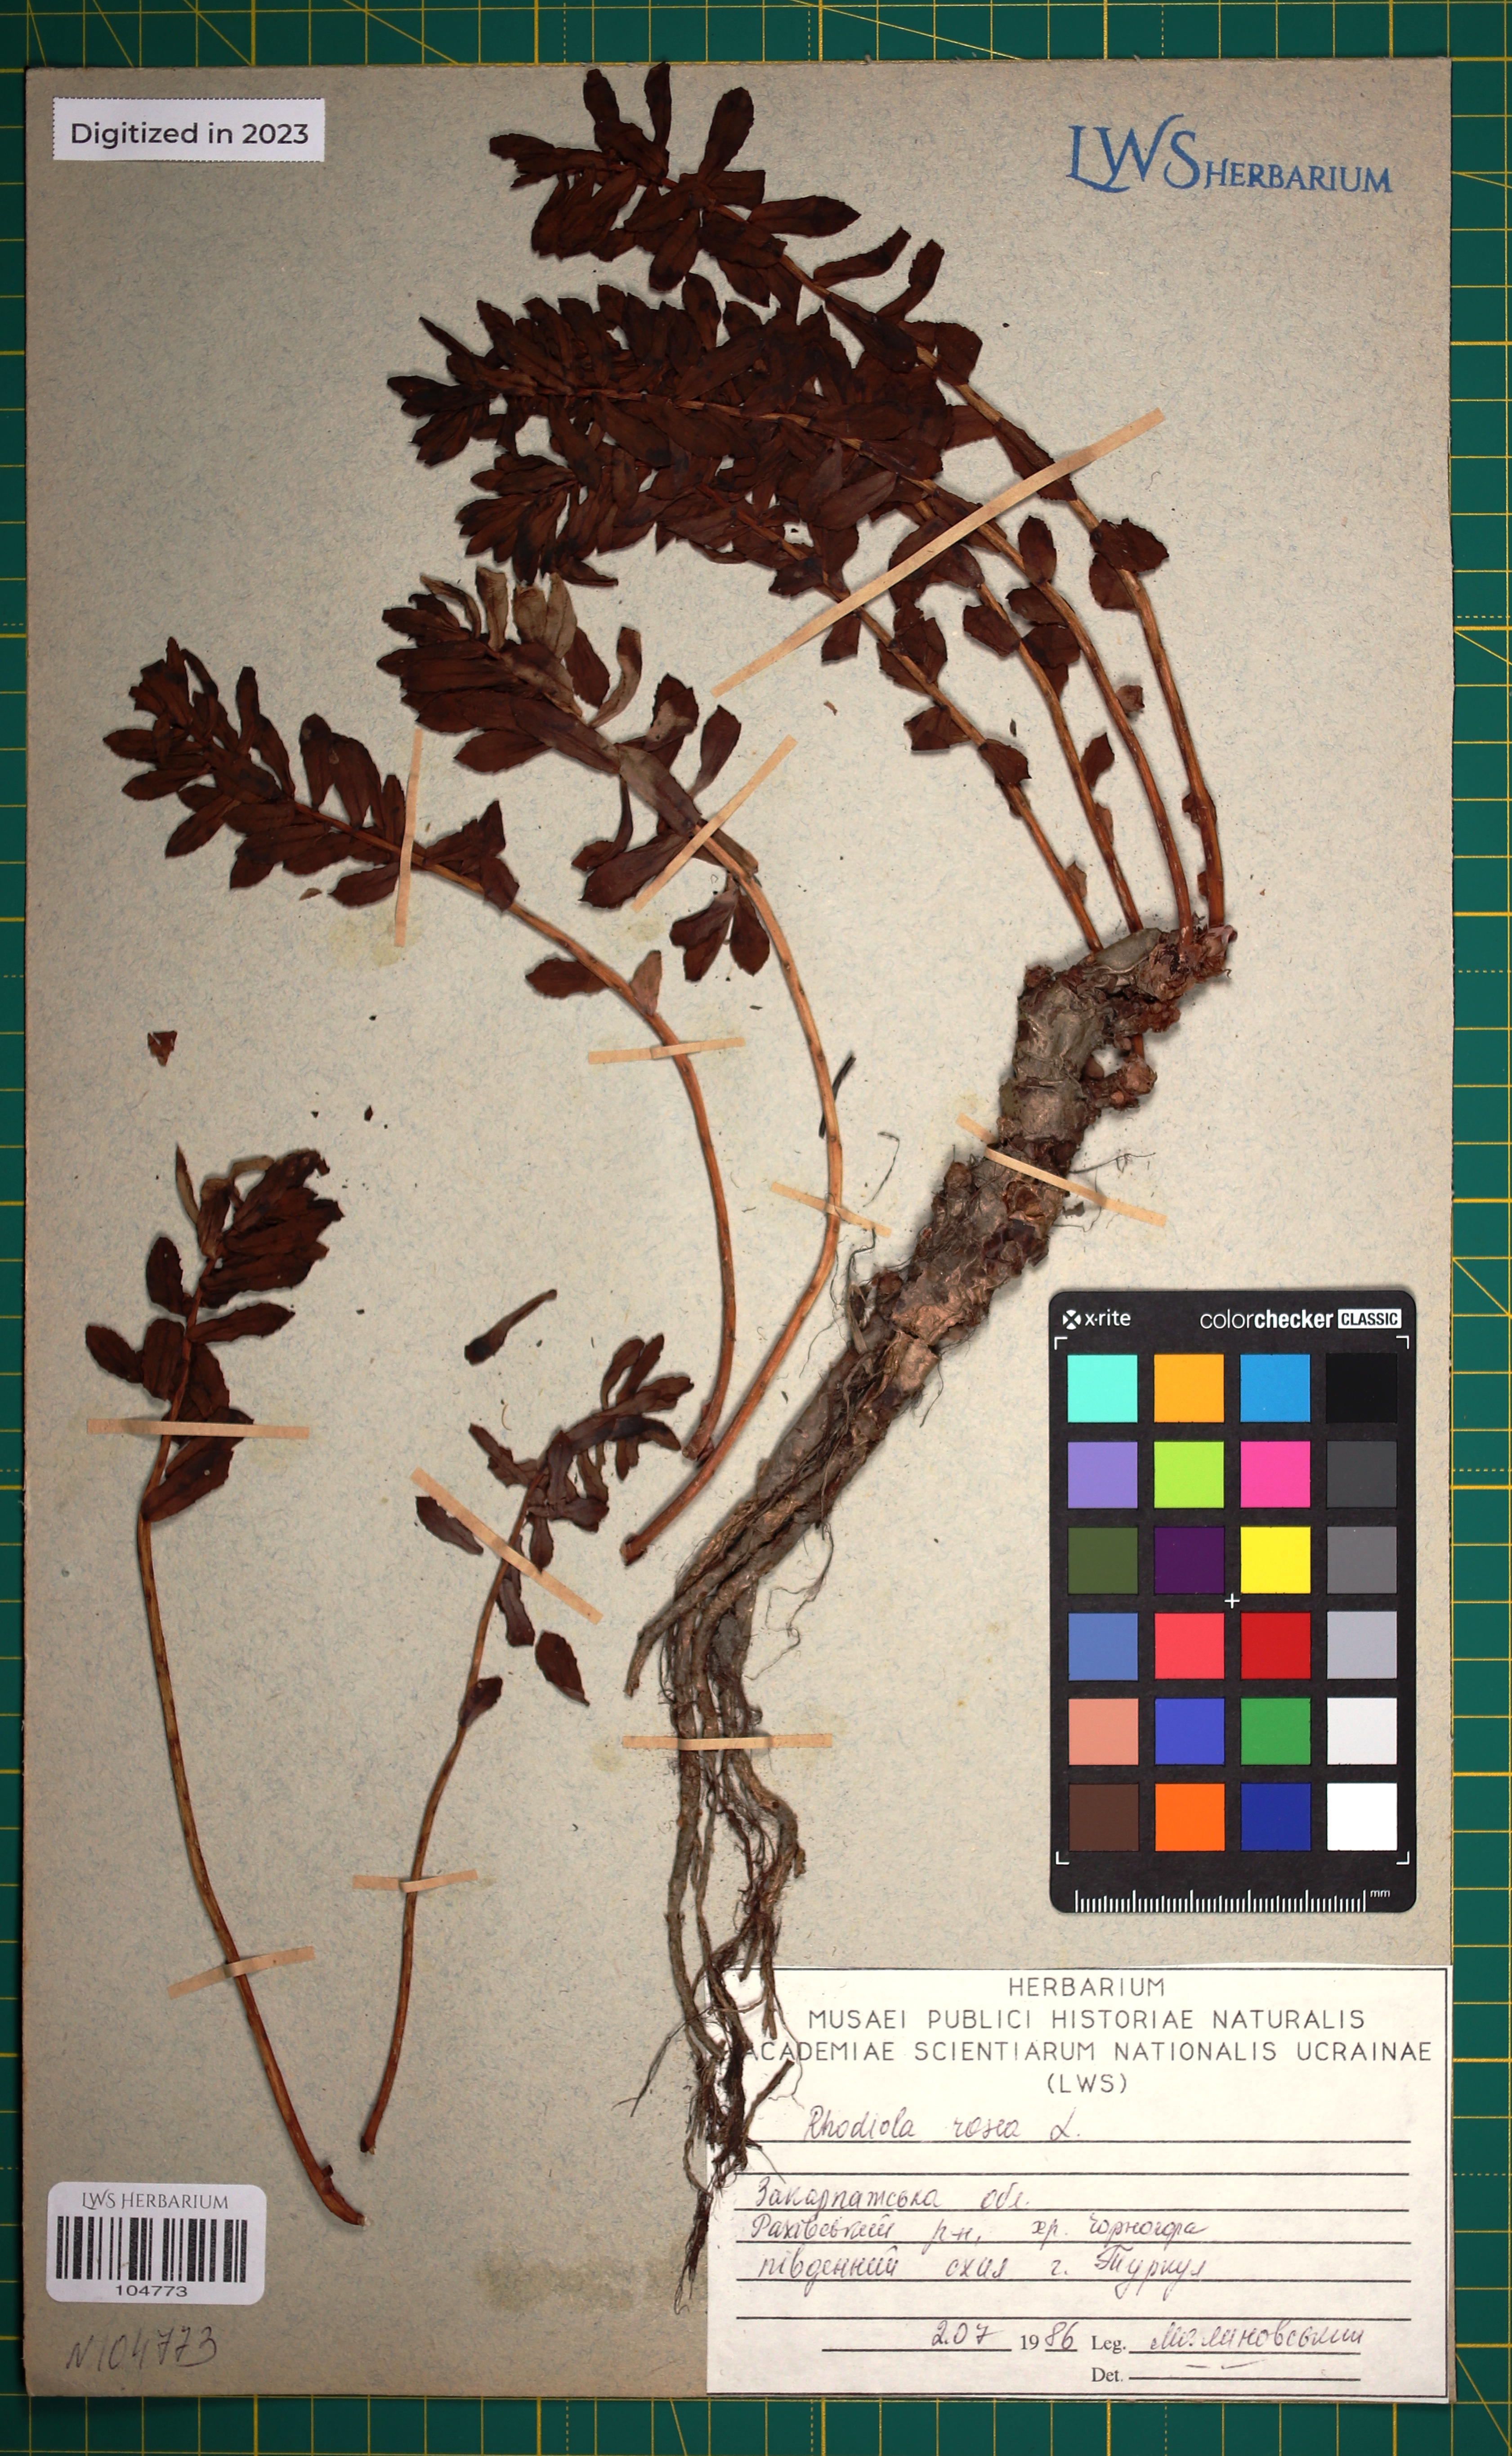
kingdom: Plantae
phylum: Tracheophyta
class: Magnoliopsida
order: Saxifragales
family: Crassulaceae
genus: Rhodiola
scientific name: Rhodiola rosea
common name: Roseroot
